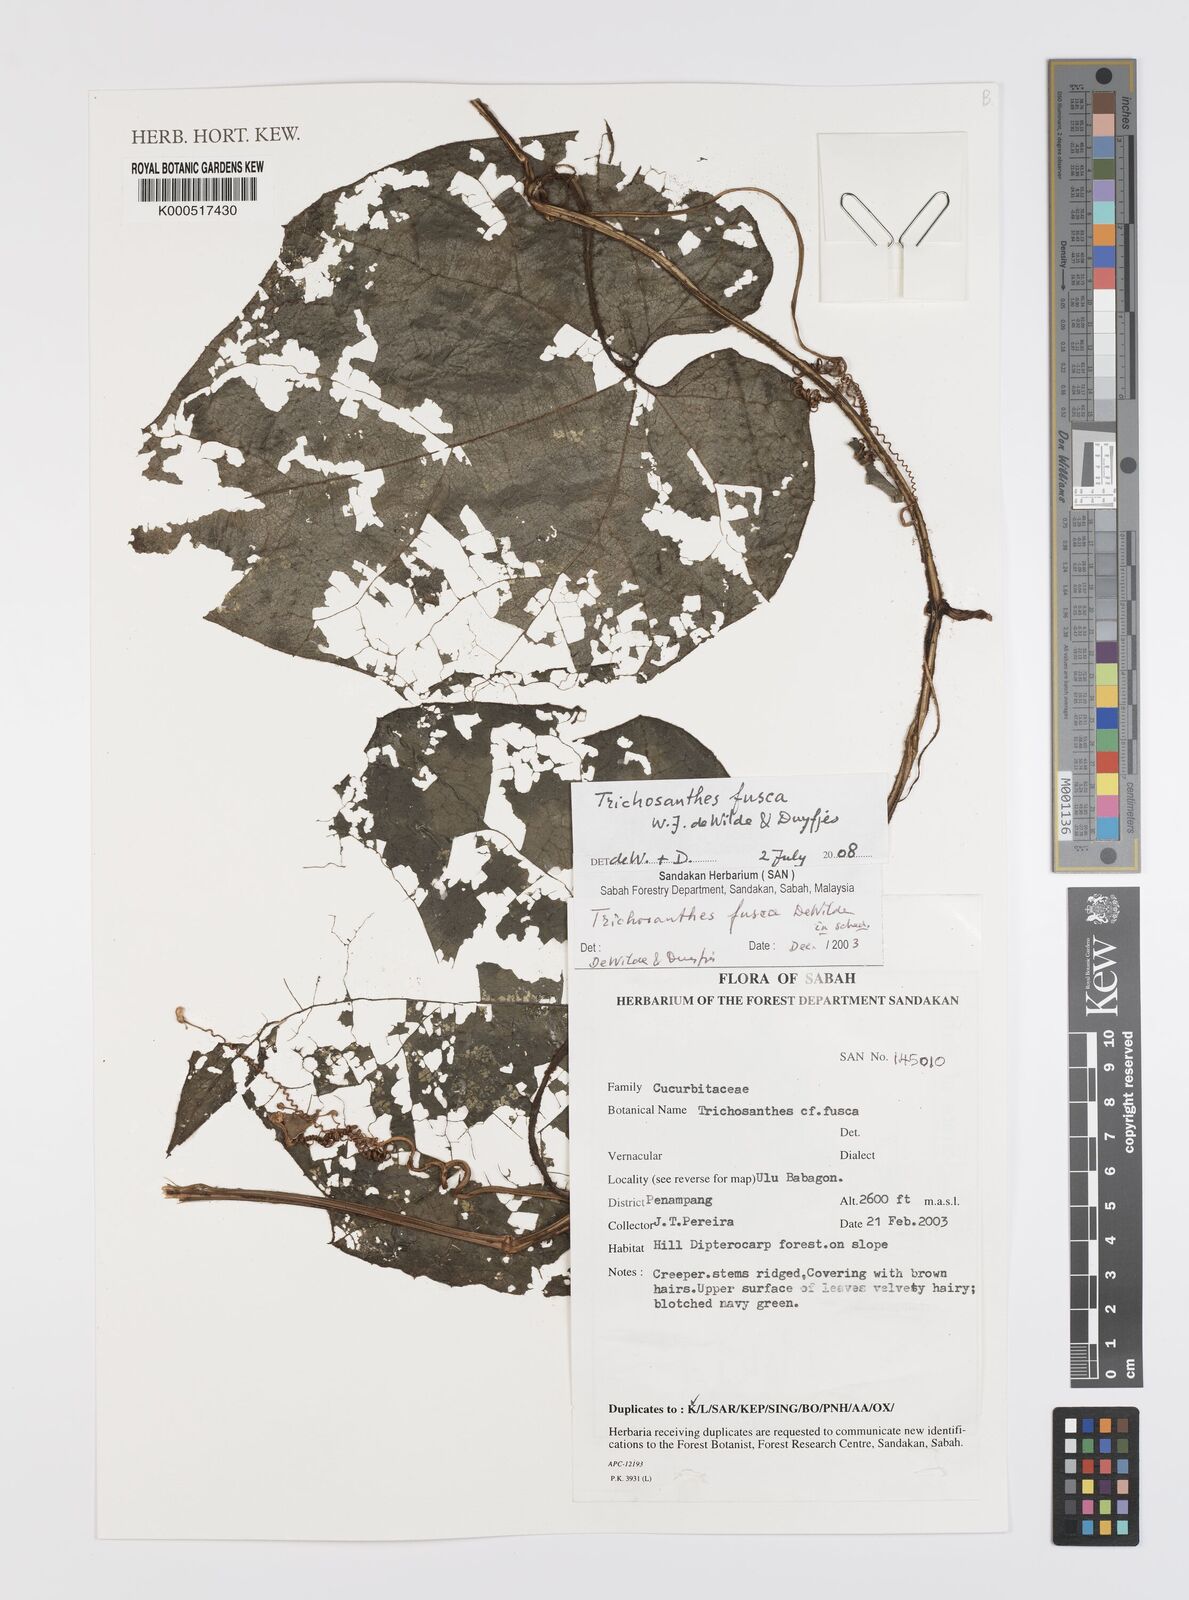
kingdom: Plantae
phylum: Tracheophyta
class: Magnoliopsida
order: Cucurbitales
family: Cucurbitaceae
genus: Trichosanthes
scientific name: Trichosanthes fusca
